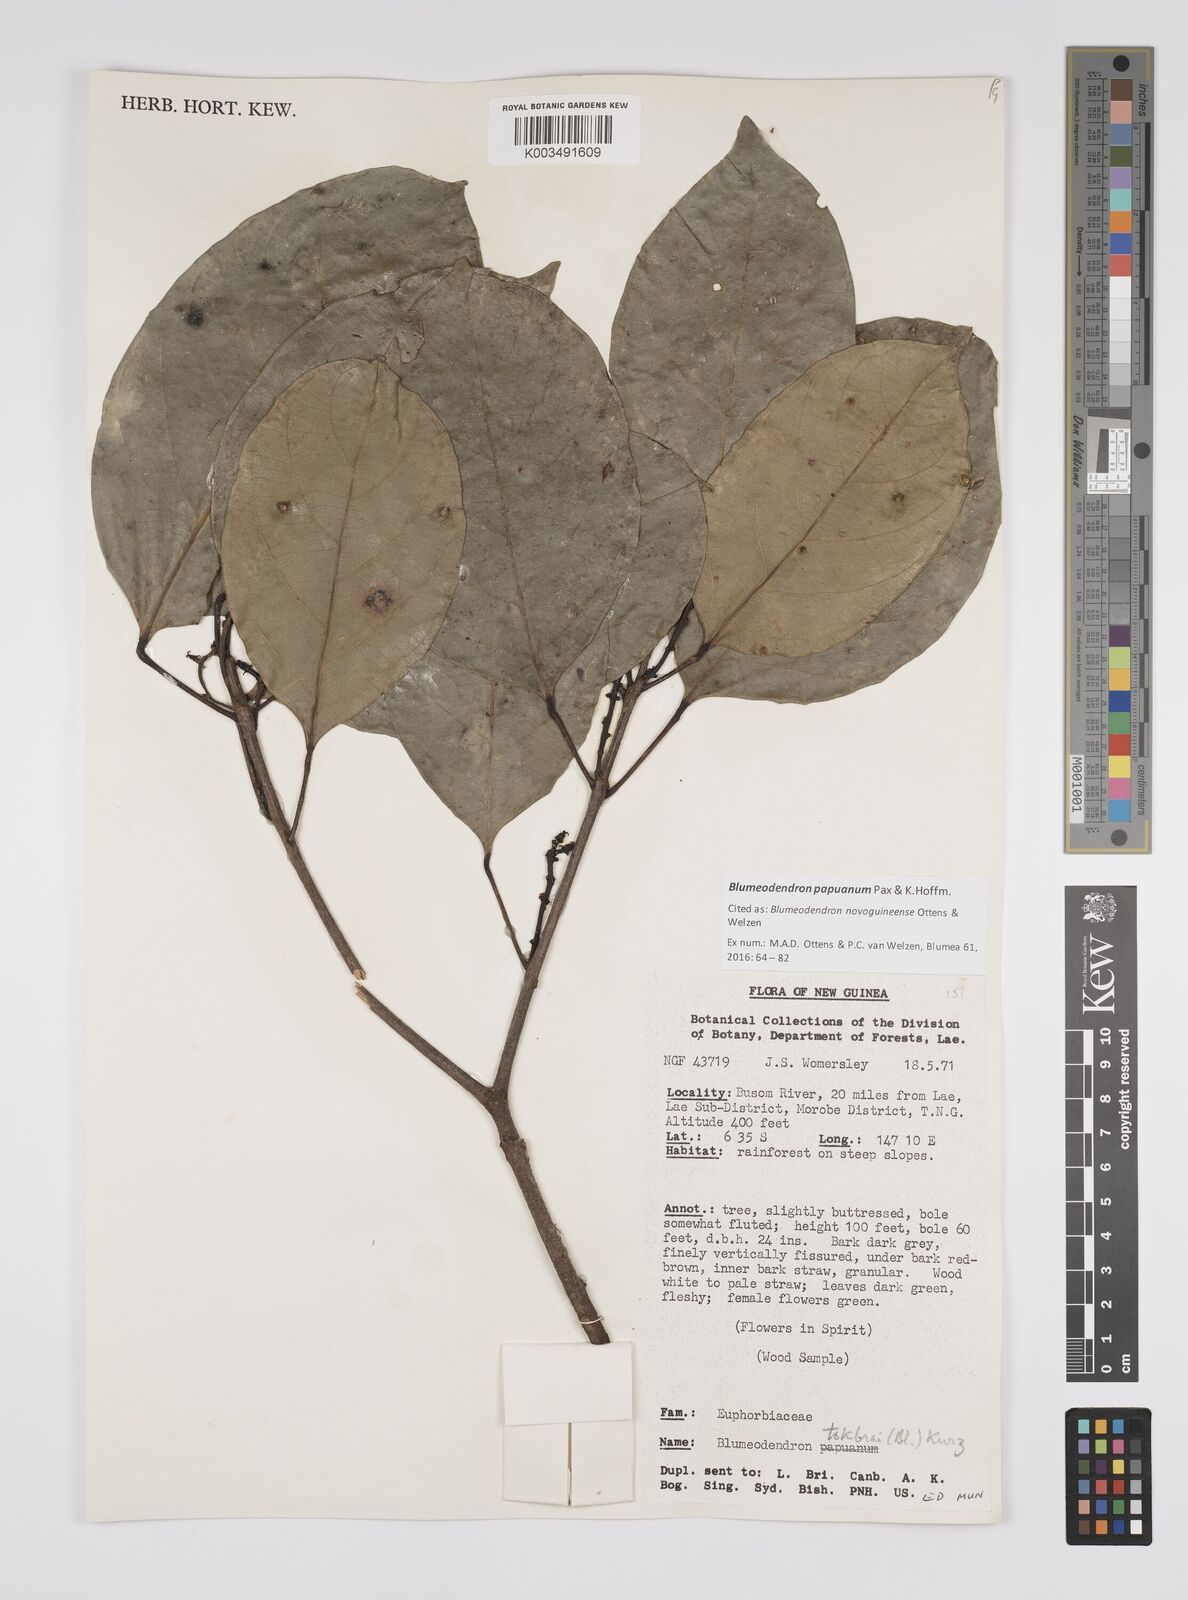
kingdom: Plantae
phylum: Tracheophyta
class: Magnoliopsida
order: Malpighiales
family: Euphorbiaceae
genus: Blumeodendron
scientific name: Blumeodendron papuanum
